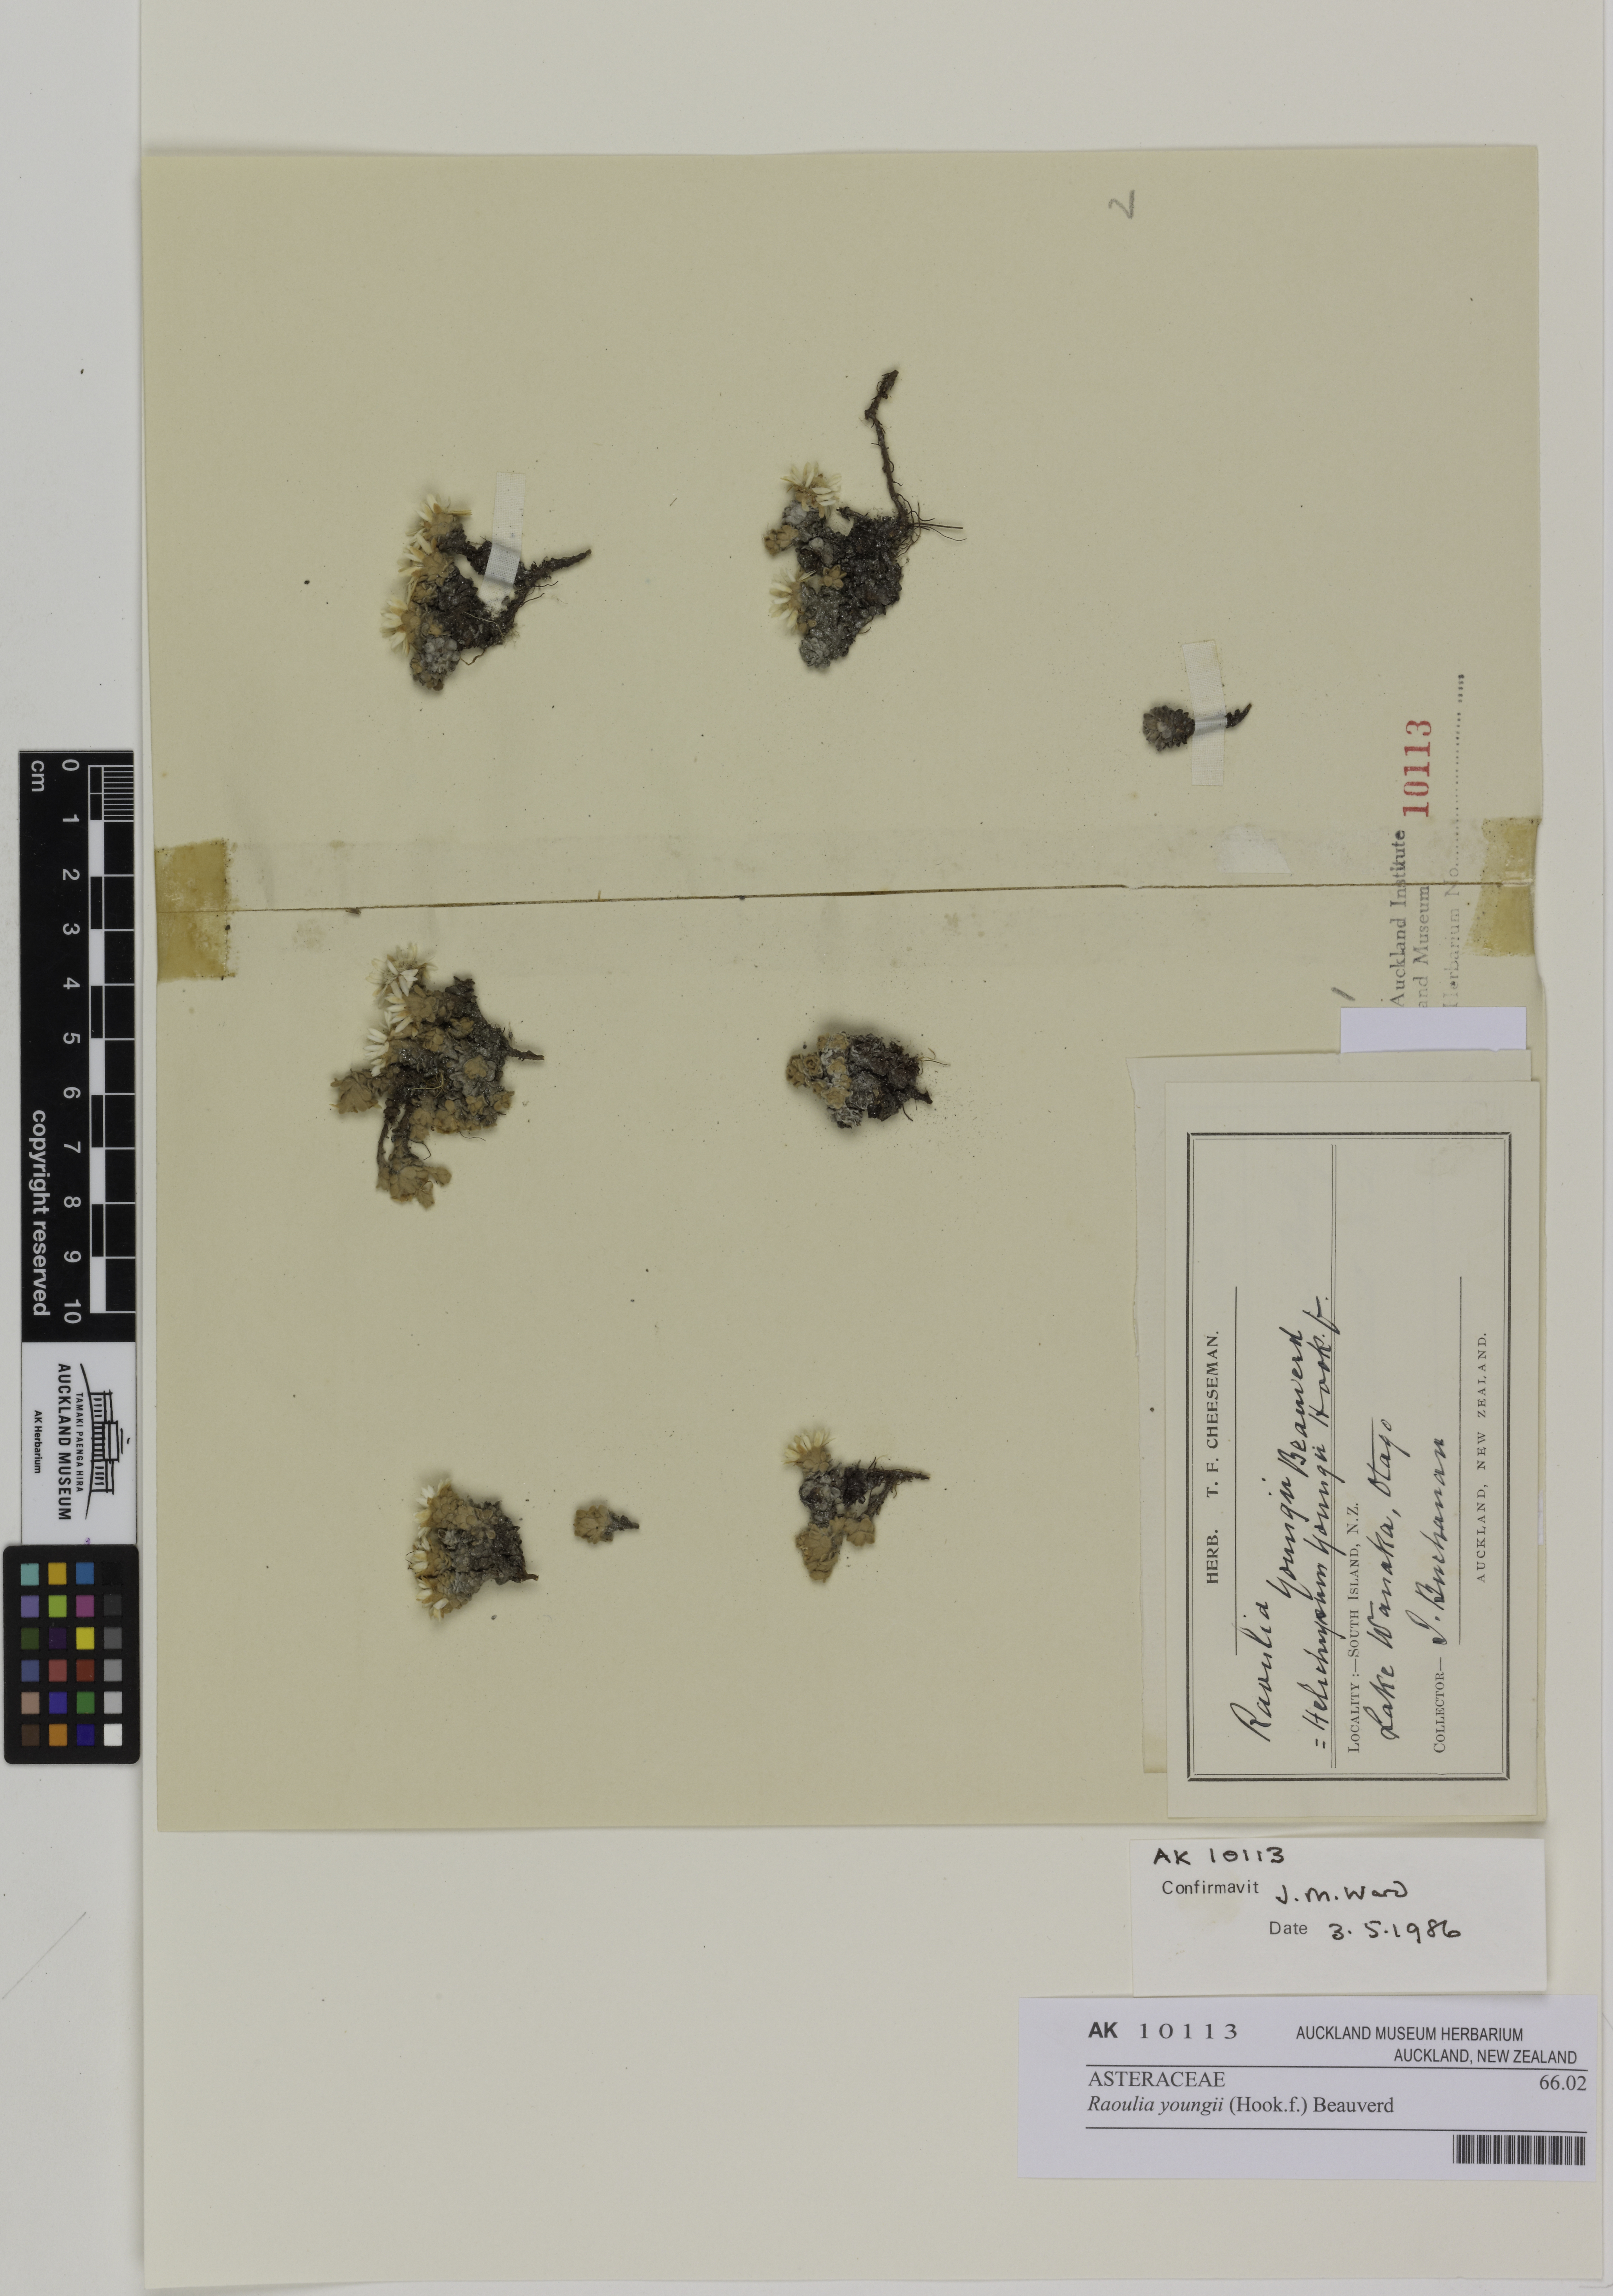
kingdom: Plantae
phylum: Tracheophyta
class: Magnoliopsida
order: Asterales
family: Asteraceae
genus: Raoulia
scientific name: Raoulia youngii
